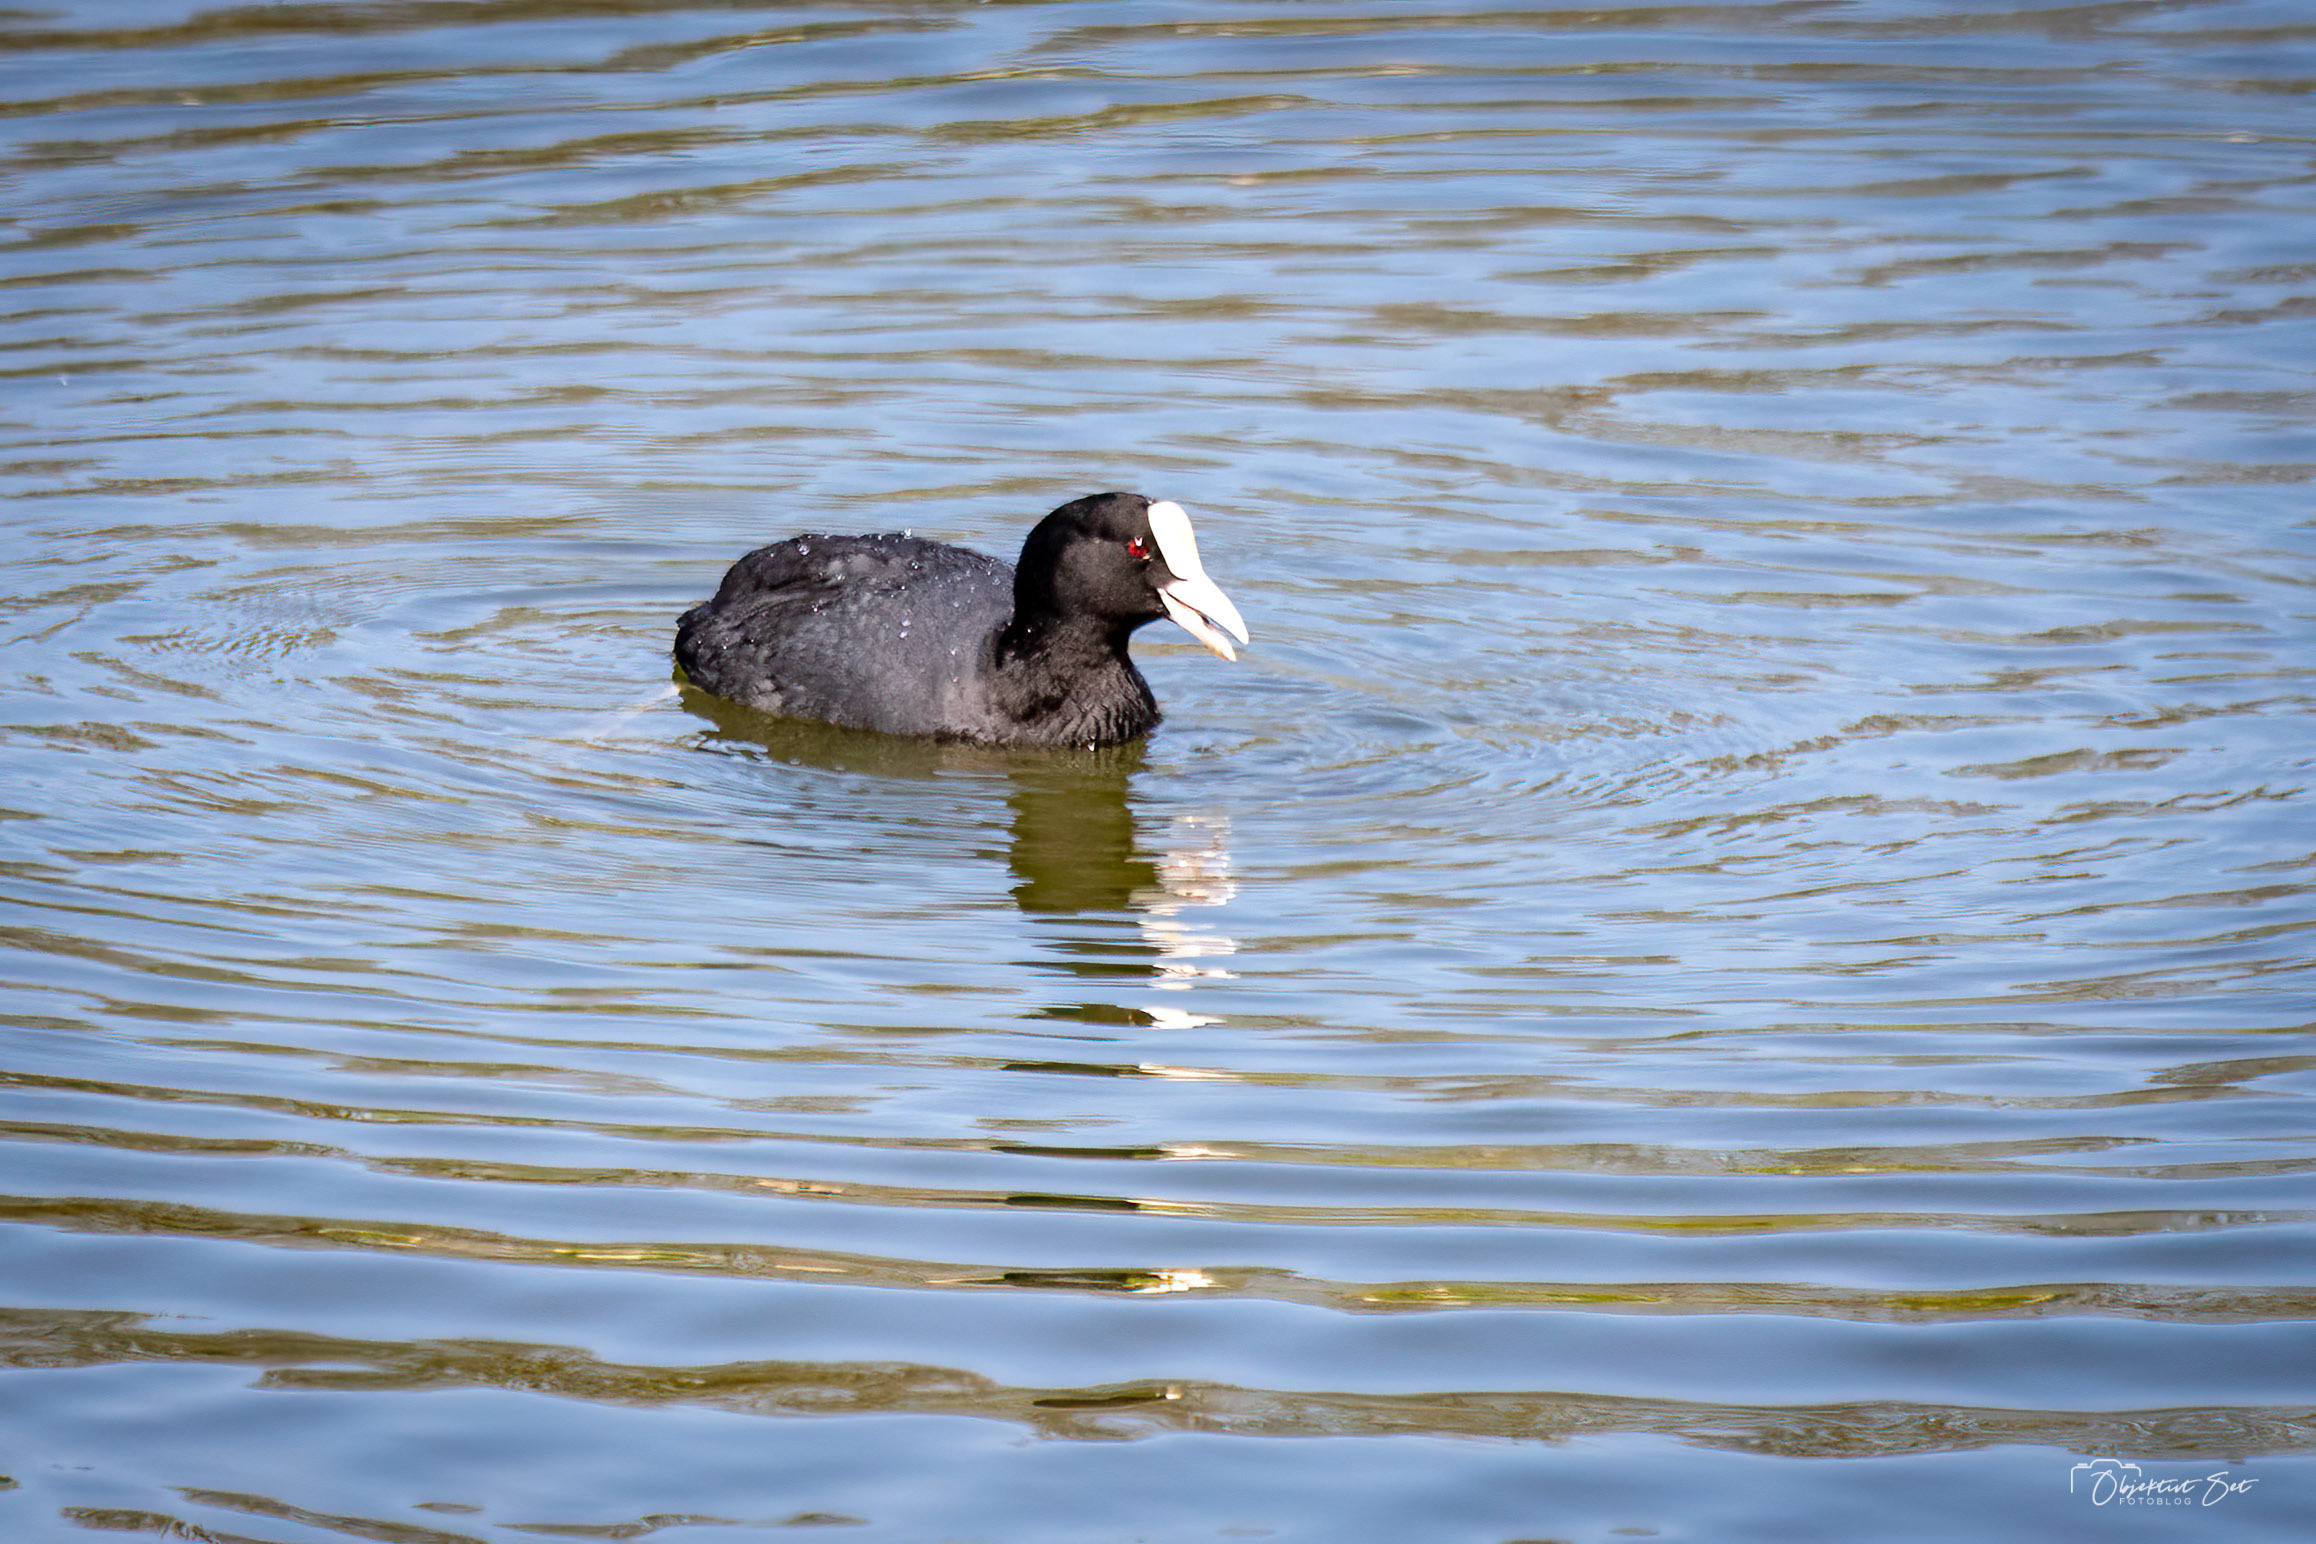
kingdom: Animalia
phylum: Chordata
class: Aves
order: Gruiformes
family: Rallidae
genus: Fulica
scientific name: Fulica atra
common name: Blishøne
